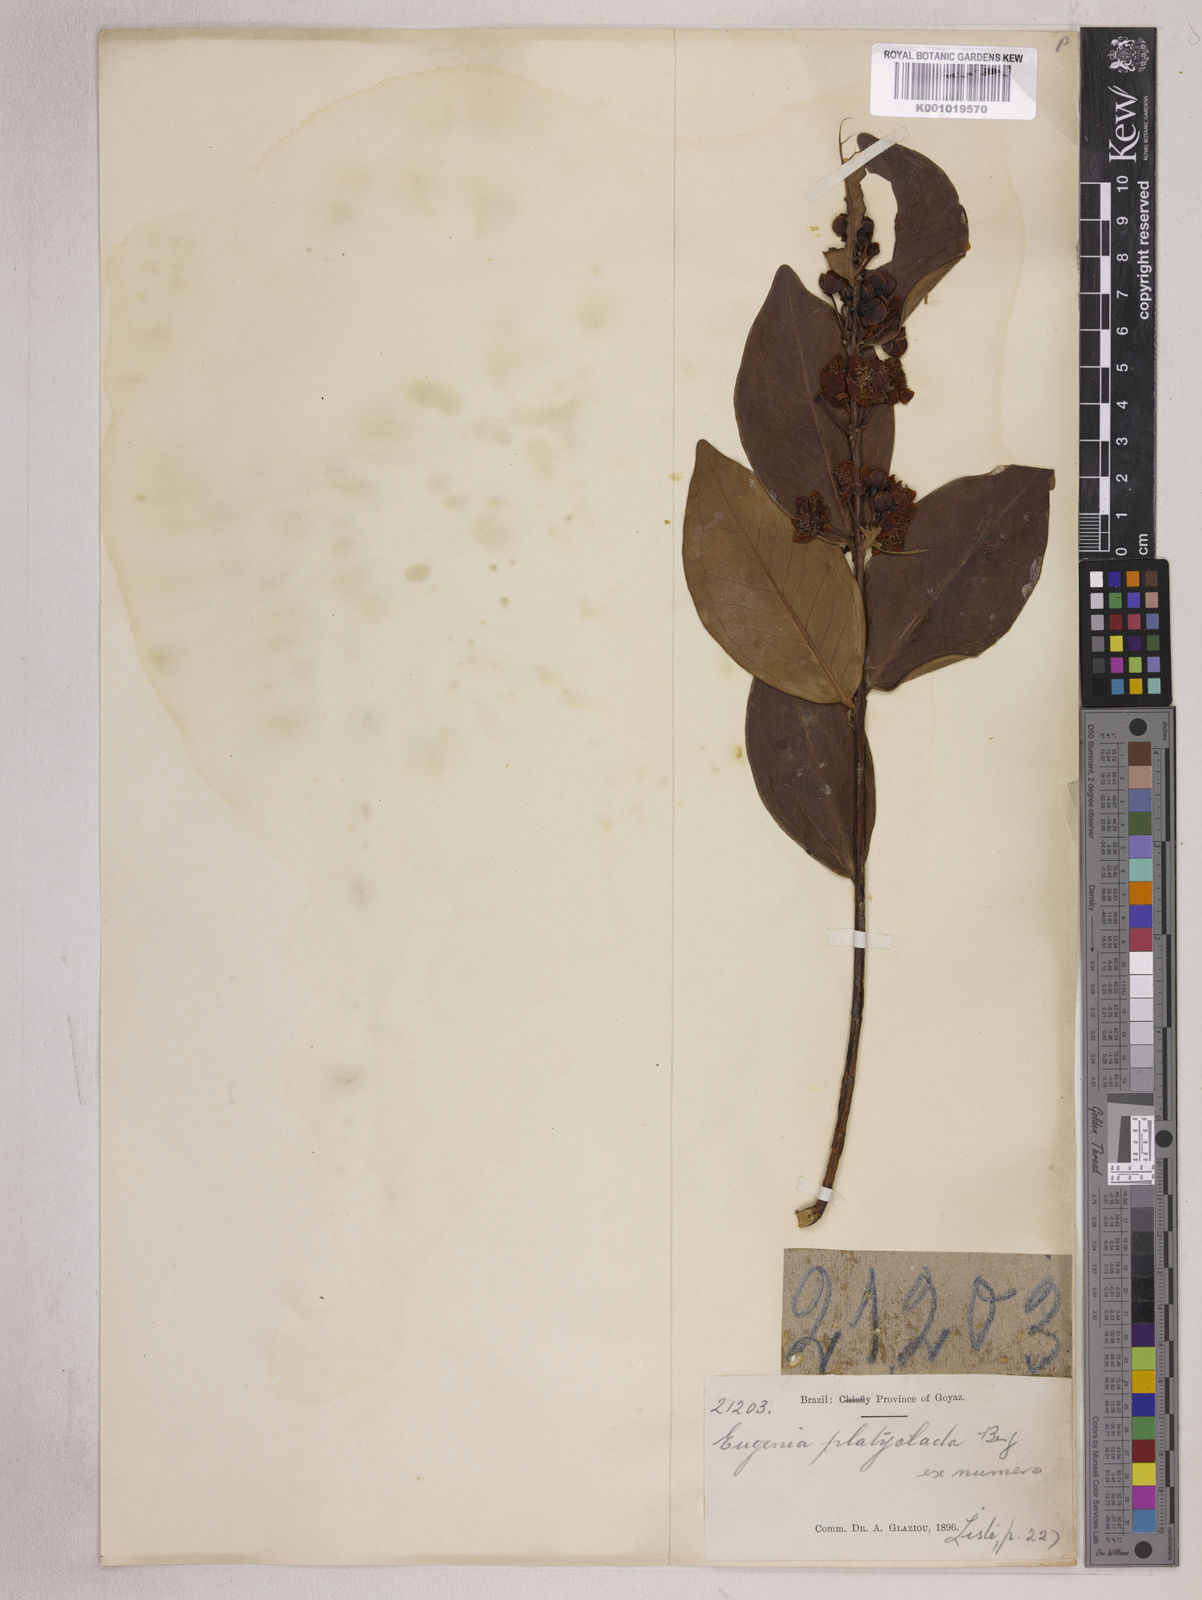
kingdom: Plantae
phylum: Tracheophyta
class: Magnoliopsida
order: Myrtales
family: Myrtaceae
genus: Eugenia
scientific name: Eugenia punicifolia
